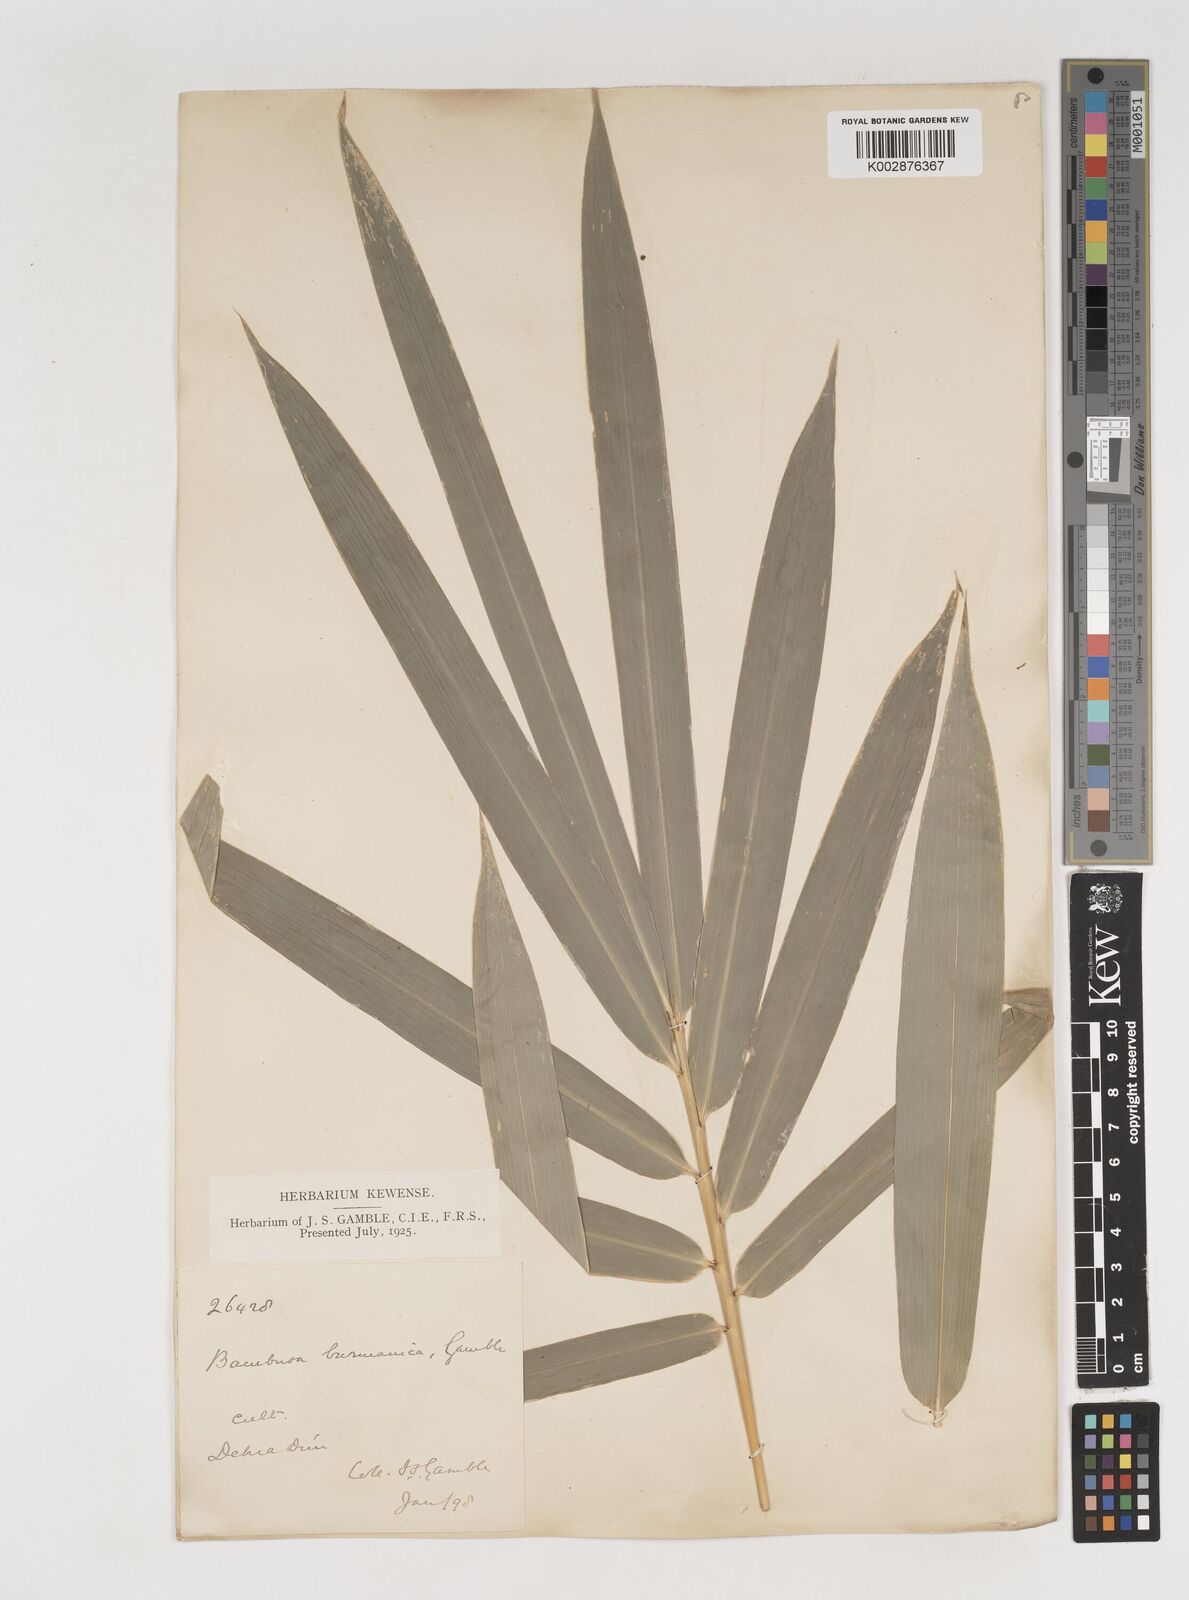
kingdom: Plantae
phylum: Tracheophyta
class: Liliopsida
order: Poales
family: Poaceae
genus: Bambusa
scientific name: Bambusa burmanica
